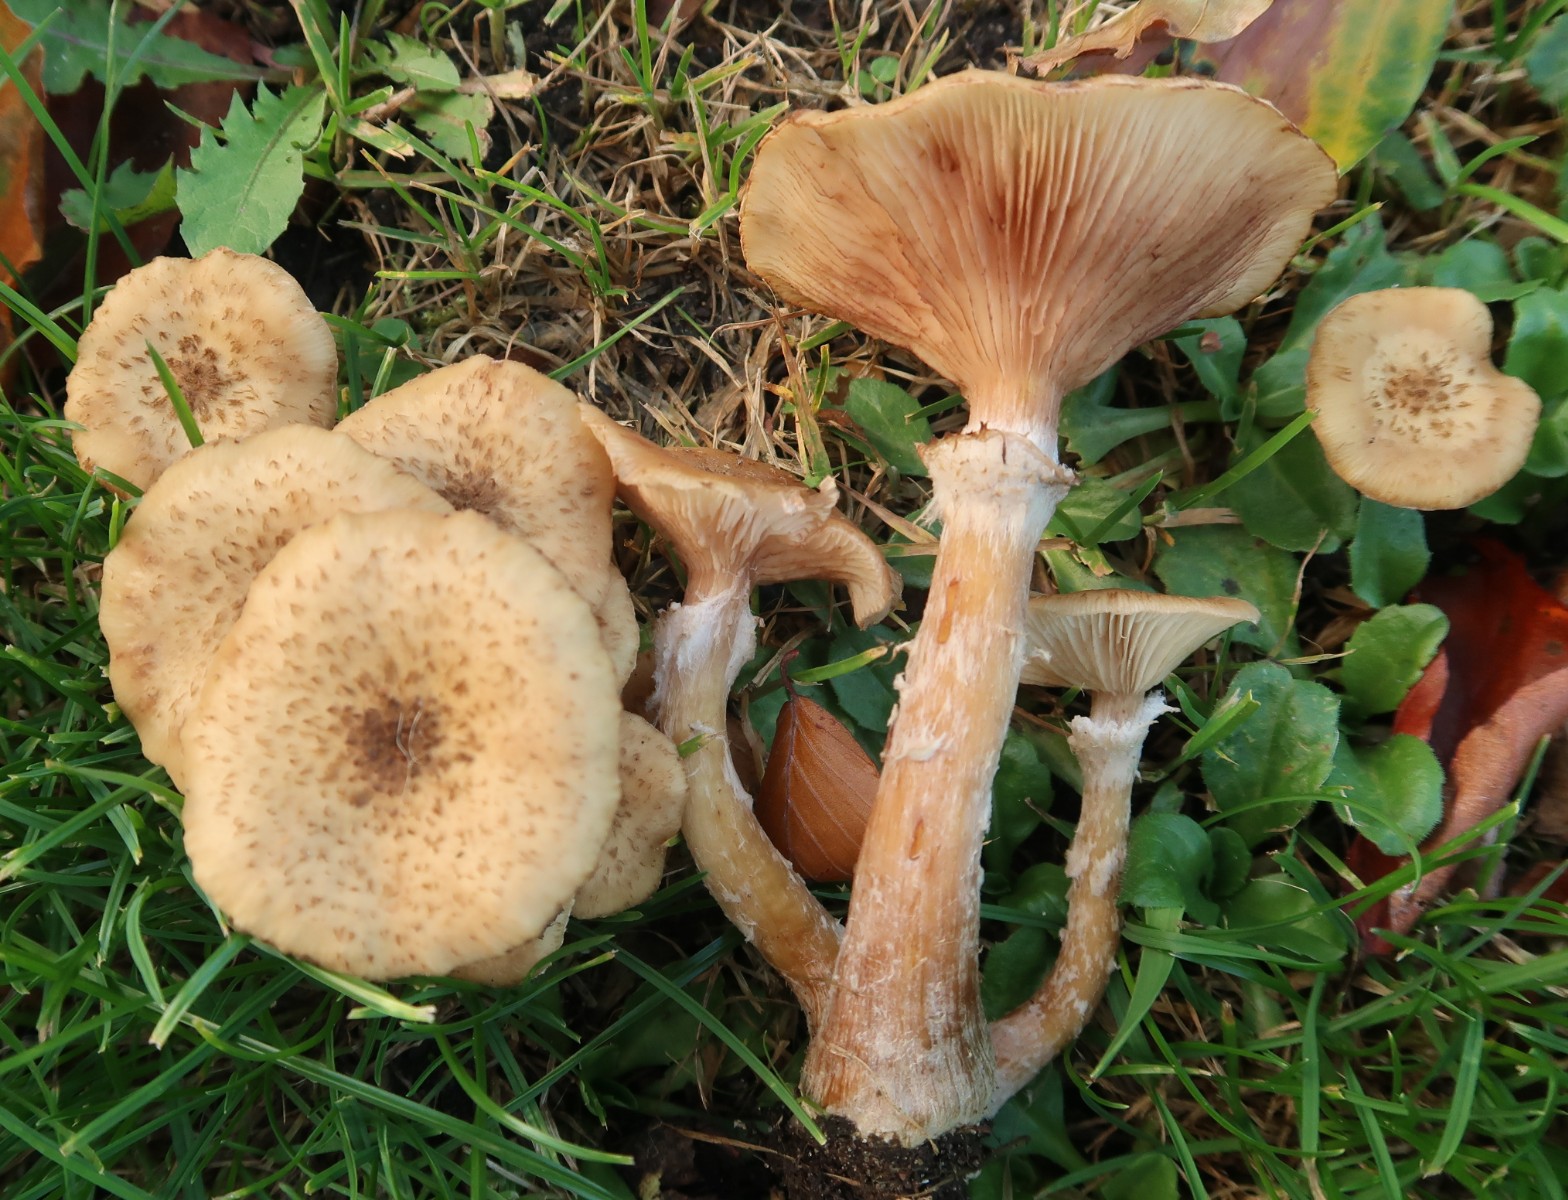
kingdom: Fungi
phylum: Basidiomycota
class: Agaricomycetes
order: Agaricales
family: Physalacriaceae
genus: Armillaria
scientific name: Armillaria mellea
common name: ægte honningsvamp
